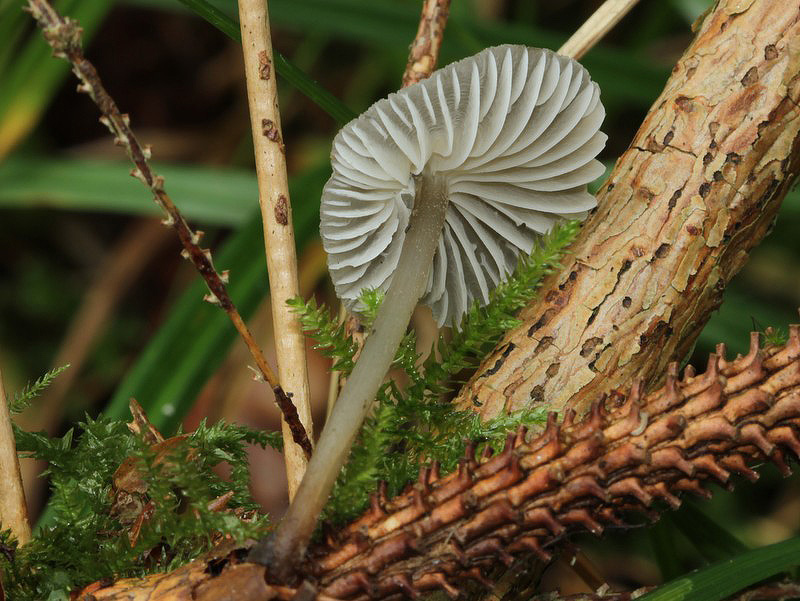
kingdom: Fungi
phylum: Basidiomycota
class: Agaricomycetes
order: Agaricales
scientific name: Agaricales
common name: champignonordenen
